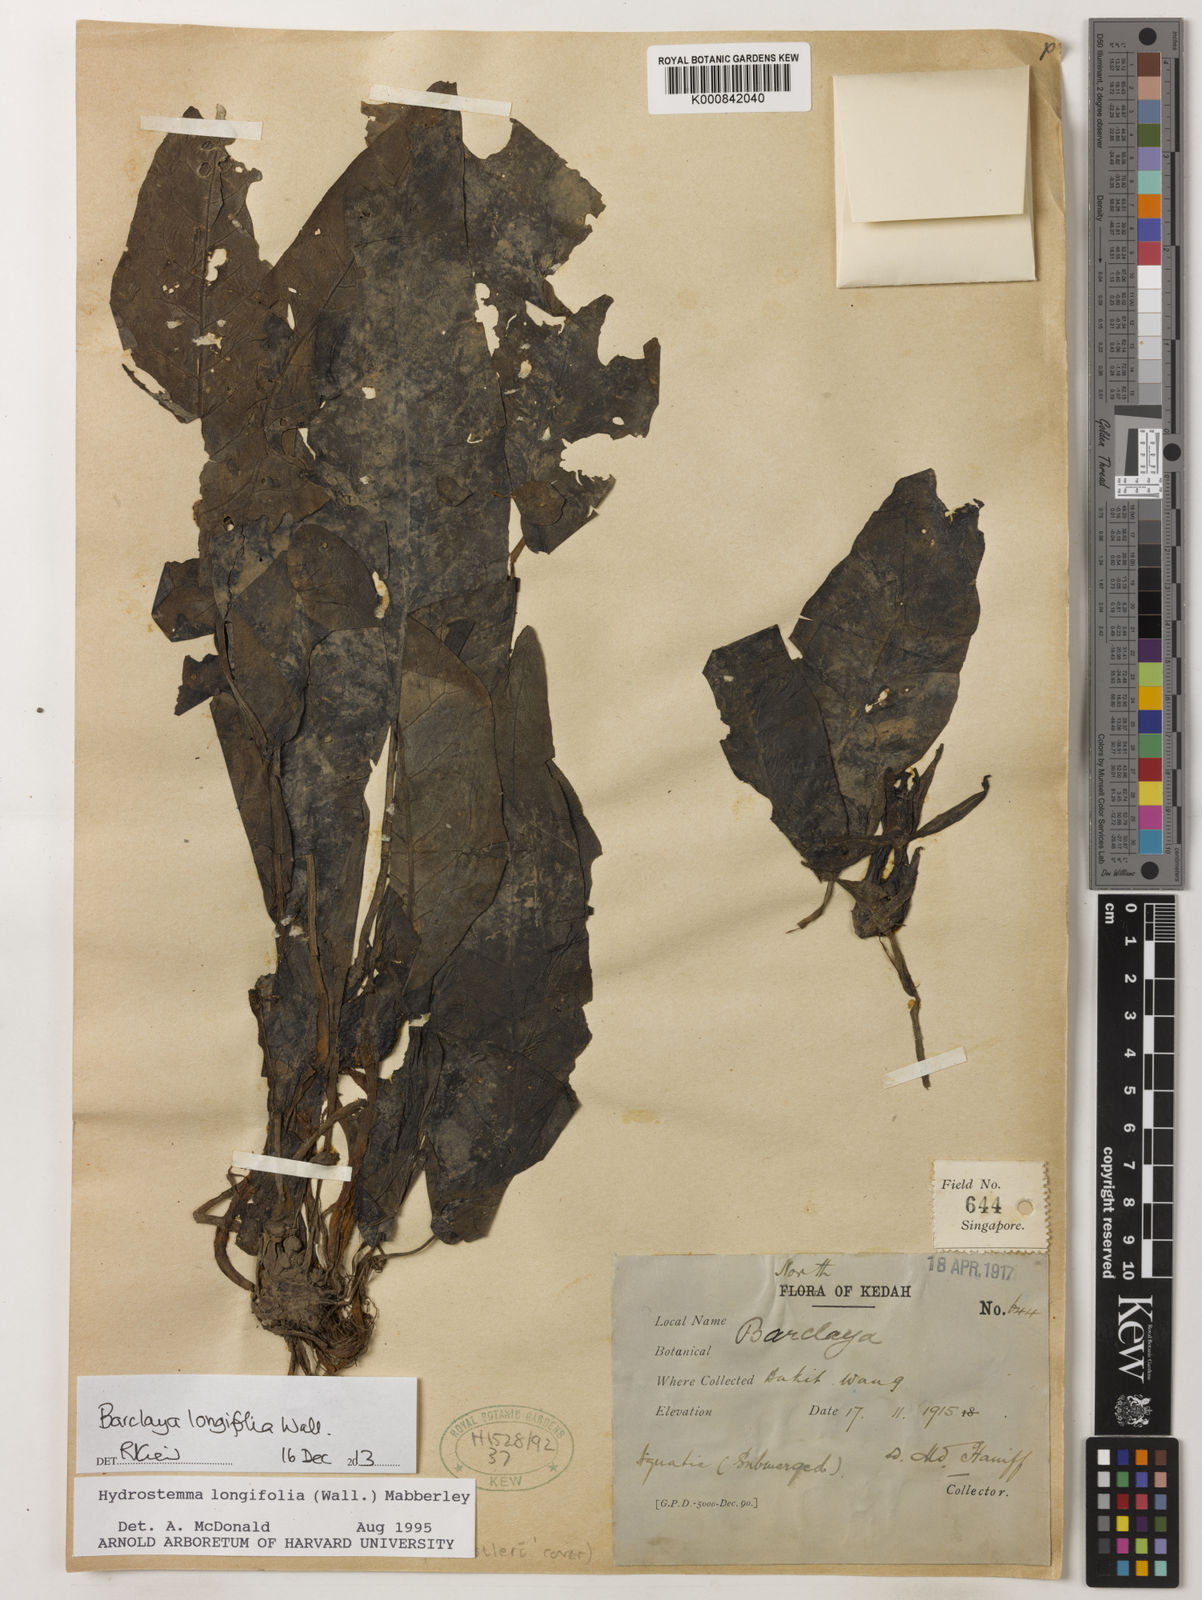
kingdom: Plantae
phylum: Tracheophyta
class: Magnoliopsida
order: Nymphaeales
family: Nymphaeaceae
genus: Barclaya
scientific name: Barclaya longifolia
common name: Orchid lily
